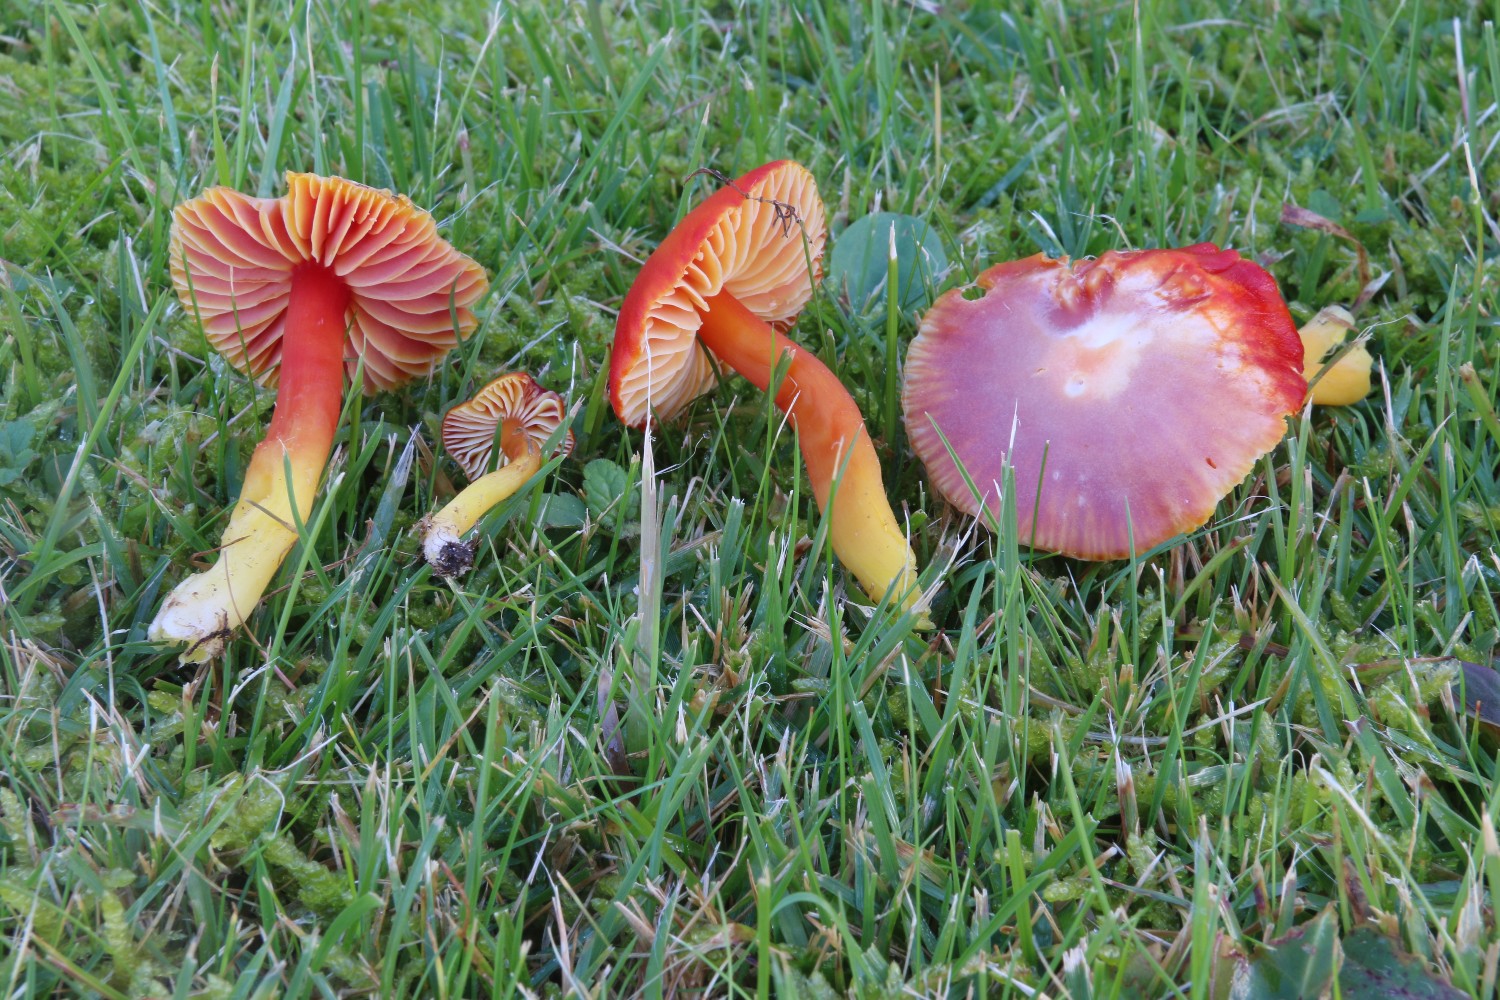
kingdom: Fungi
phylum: Basidiomycota
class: Agaricomycetes
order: Agaricales
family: Hygrophoraceae
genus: Hygrocybe
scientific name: Hygrocybe coccinea
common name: cinnober-vokshat
